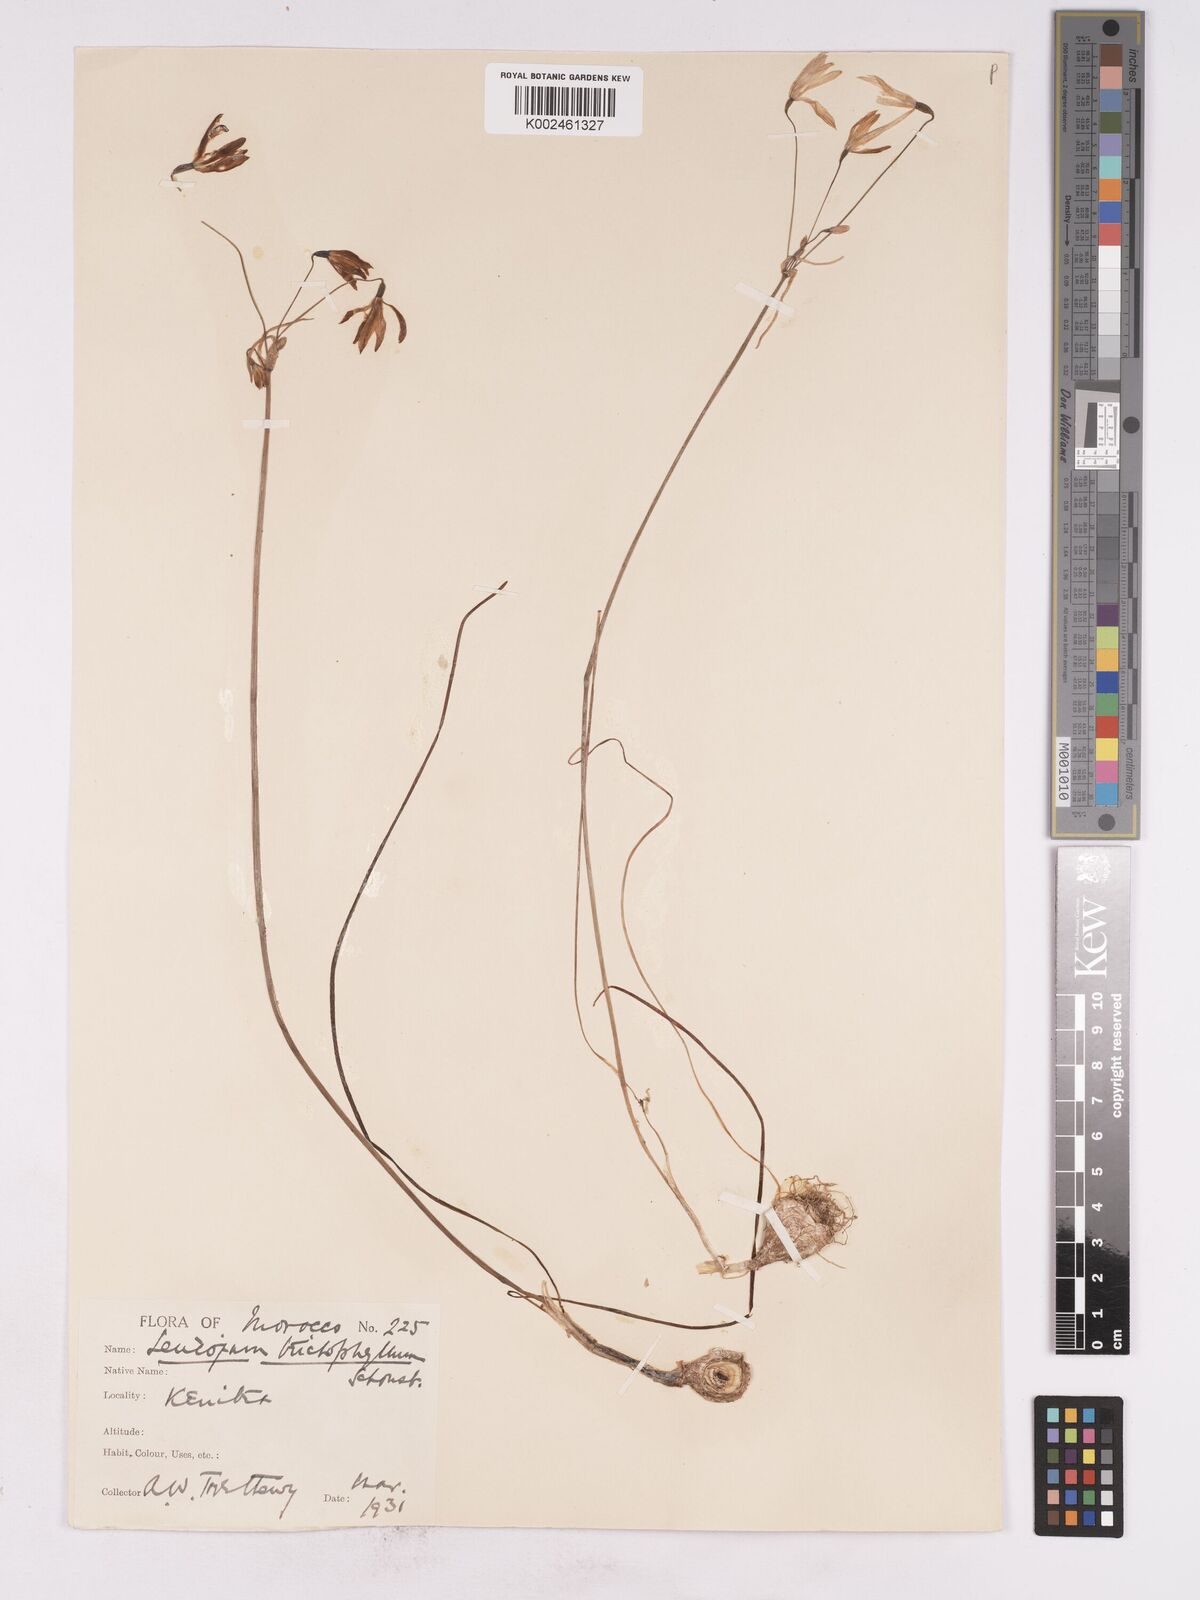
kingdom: Plantae
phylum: Tracheophyta
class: Liliopsida
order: Asparagales
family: Amaryllidaceae
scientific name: Amaryllidaceae
